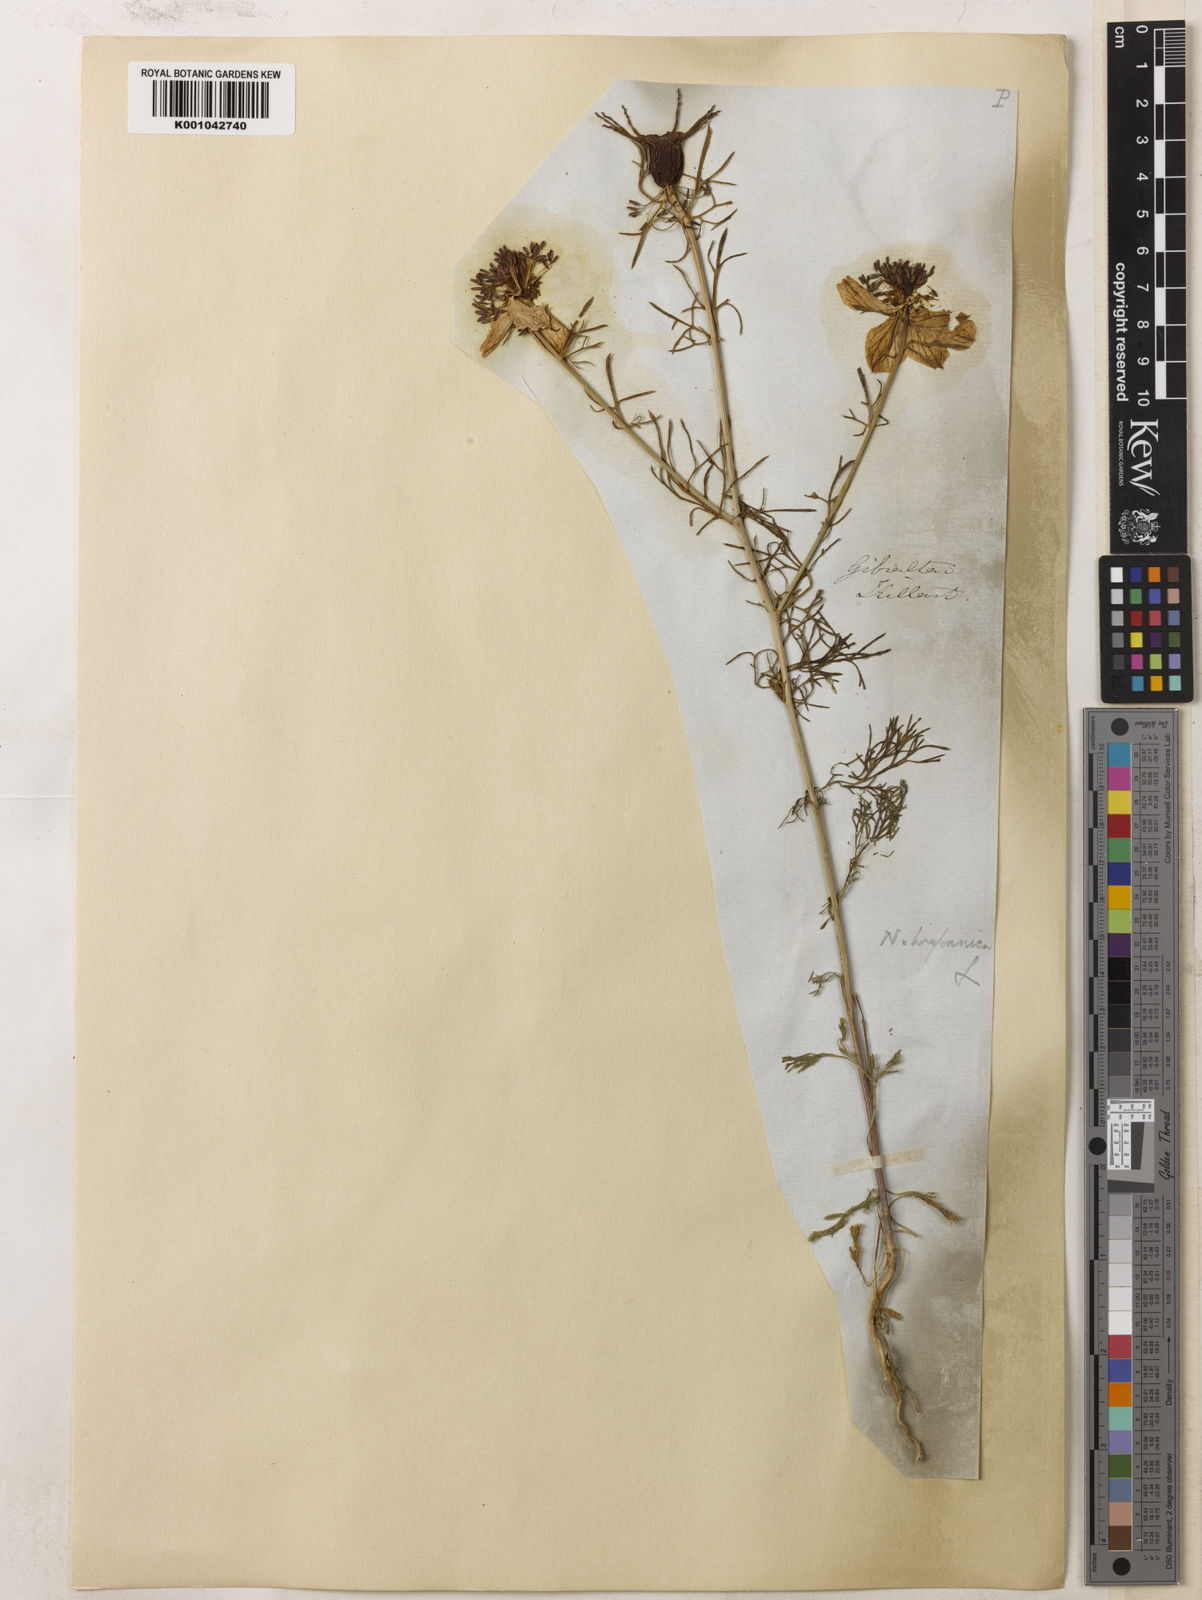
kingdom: Plantae
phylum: Tracheophyta
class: Magnoliopsida
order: Ranunculales
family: Ranunculaceae
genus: Nigella
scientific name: Nigella hispanica
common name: Fennel-flower
